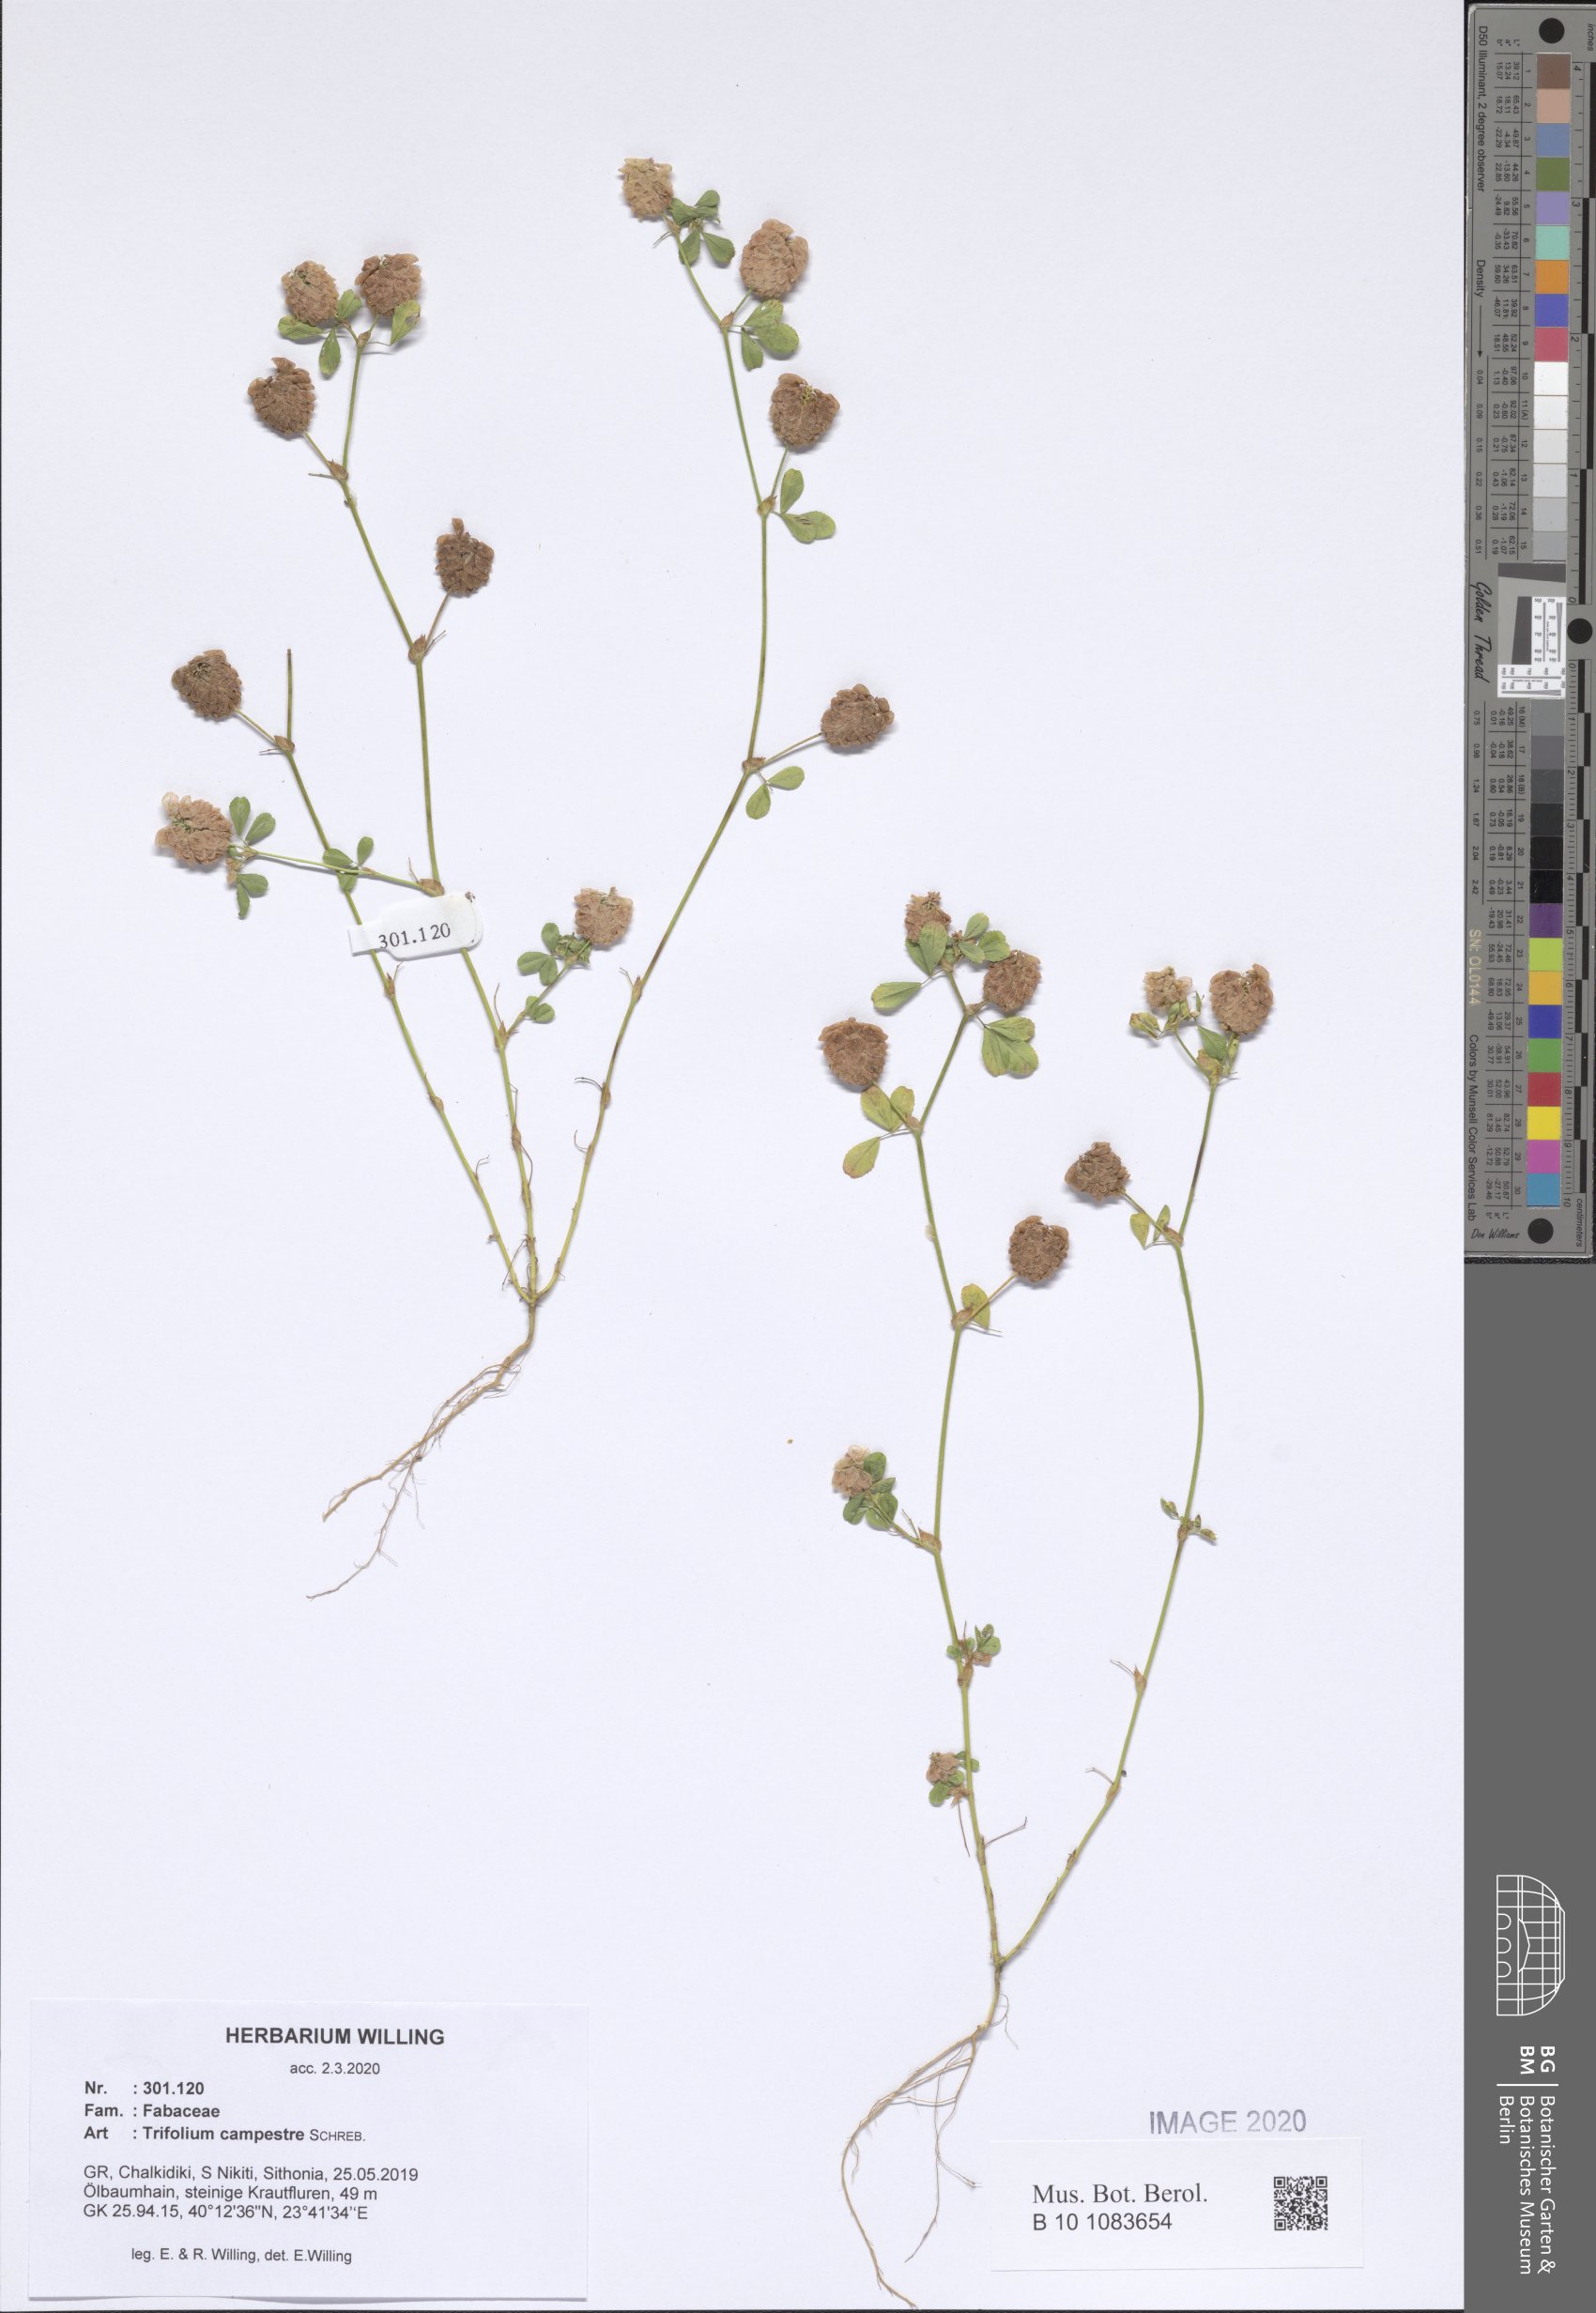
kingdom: Plantae
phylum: Tracheophyta
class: Magnoliopsida
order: Fabales
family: Fabaceae
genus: Trifolium
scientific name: Trifolium campestre
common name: Field clover
